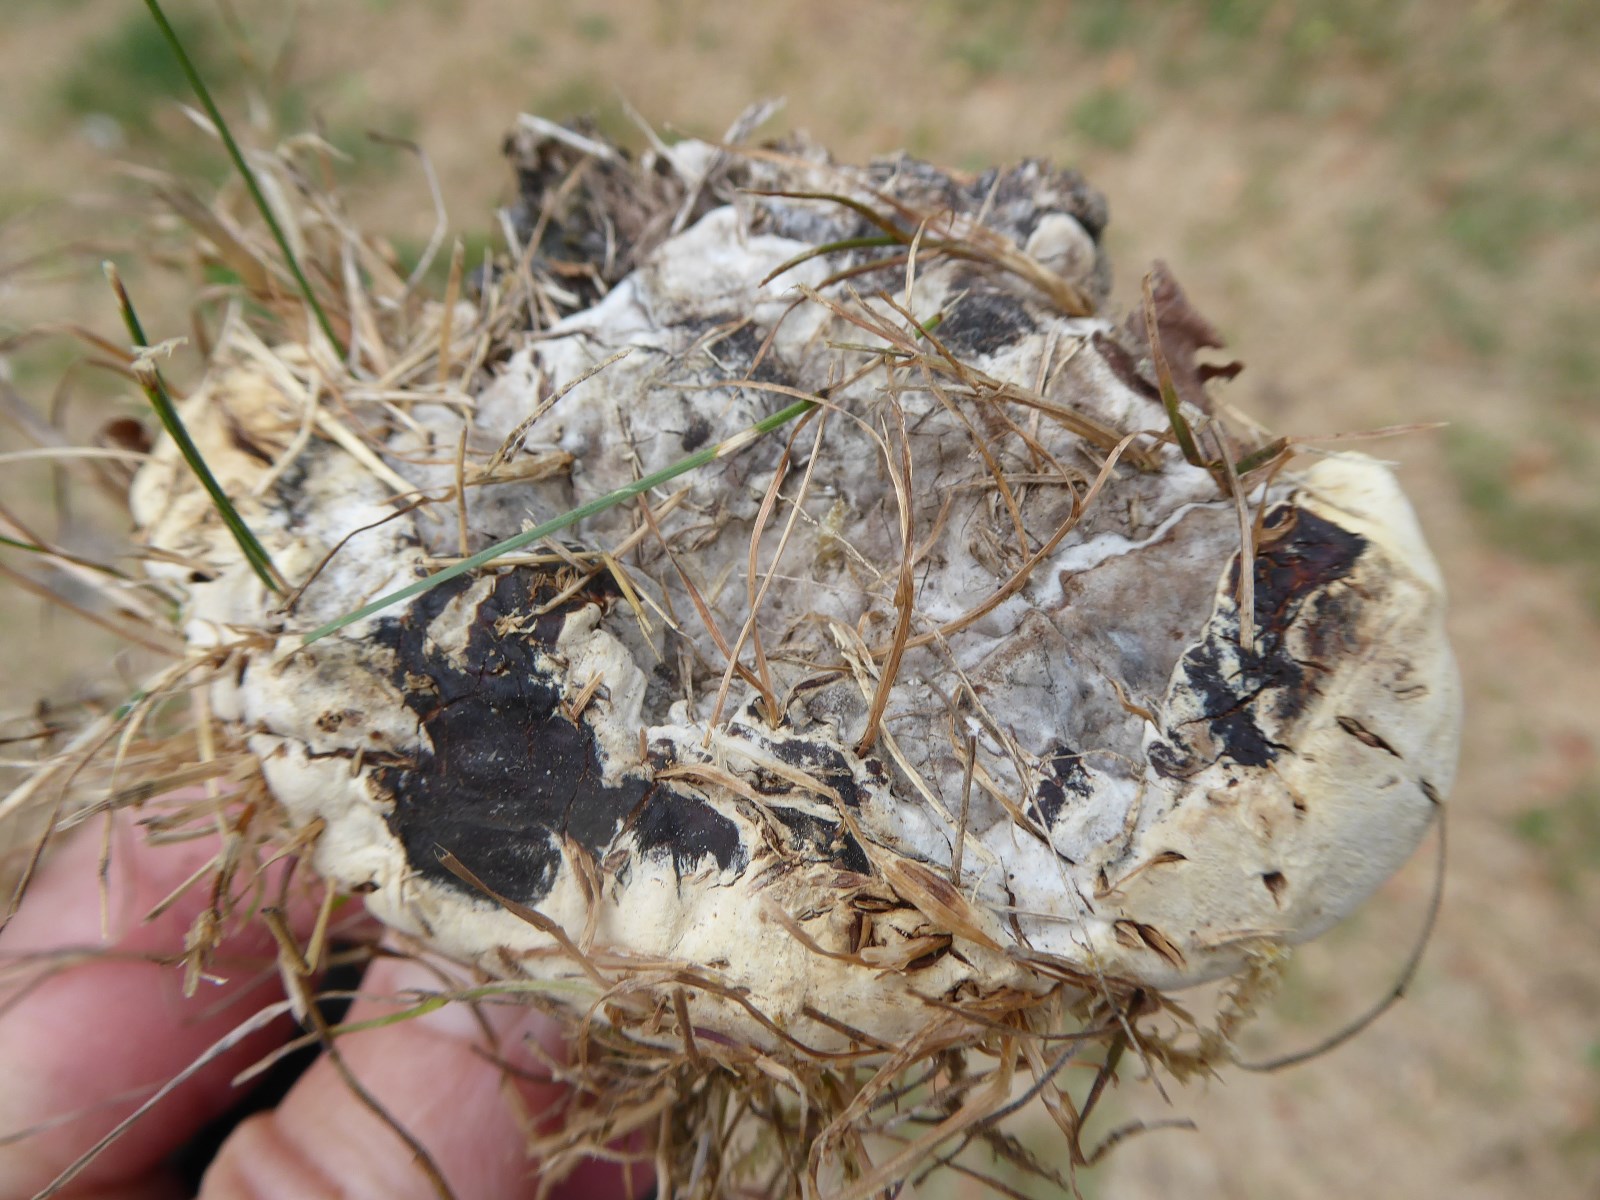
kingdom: Fungi
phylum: Basidiomycota
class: Agaricomycetes
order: Russulales
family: Bondarzewiaceae
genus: Heterobasidion
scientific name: Heterobasidion annosum
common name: almindelig rodfordærver
